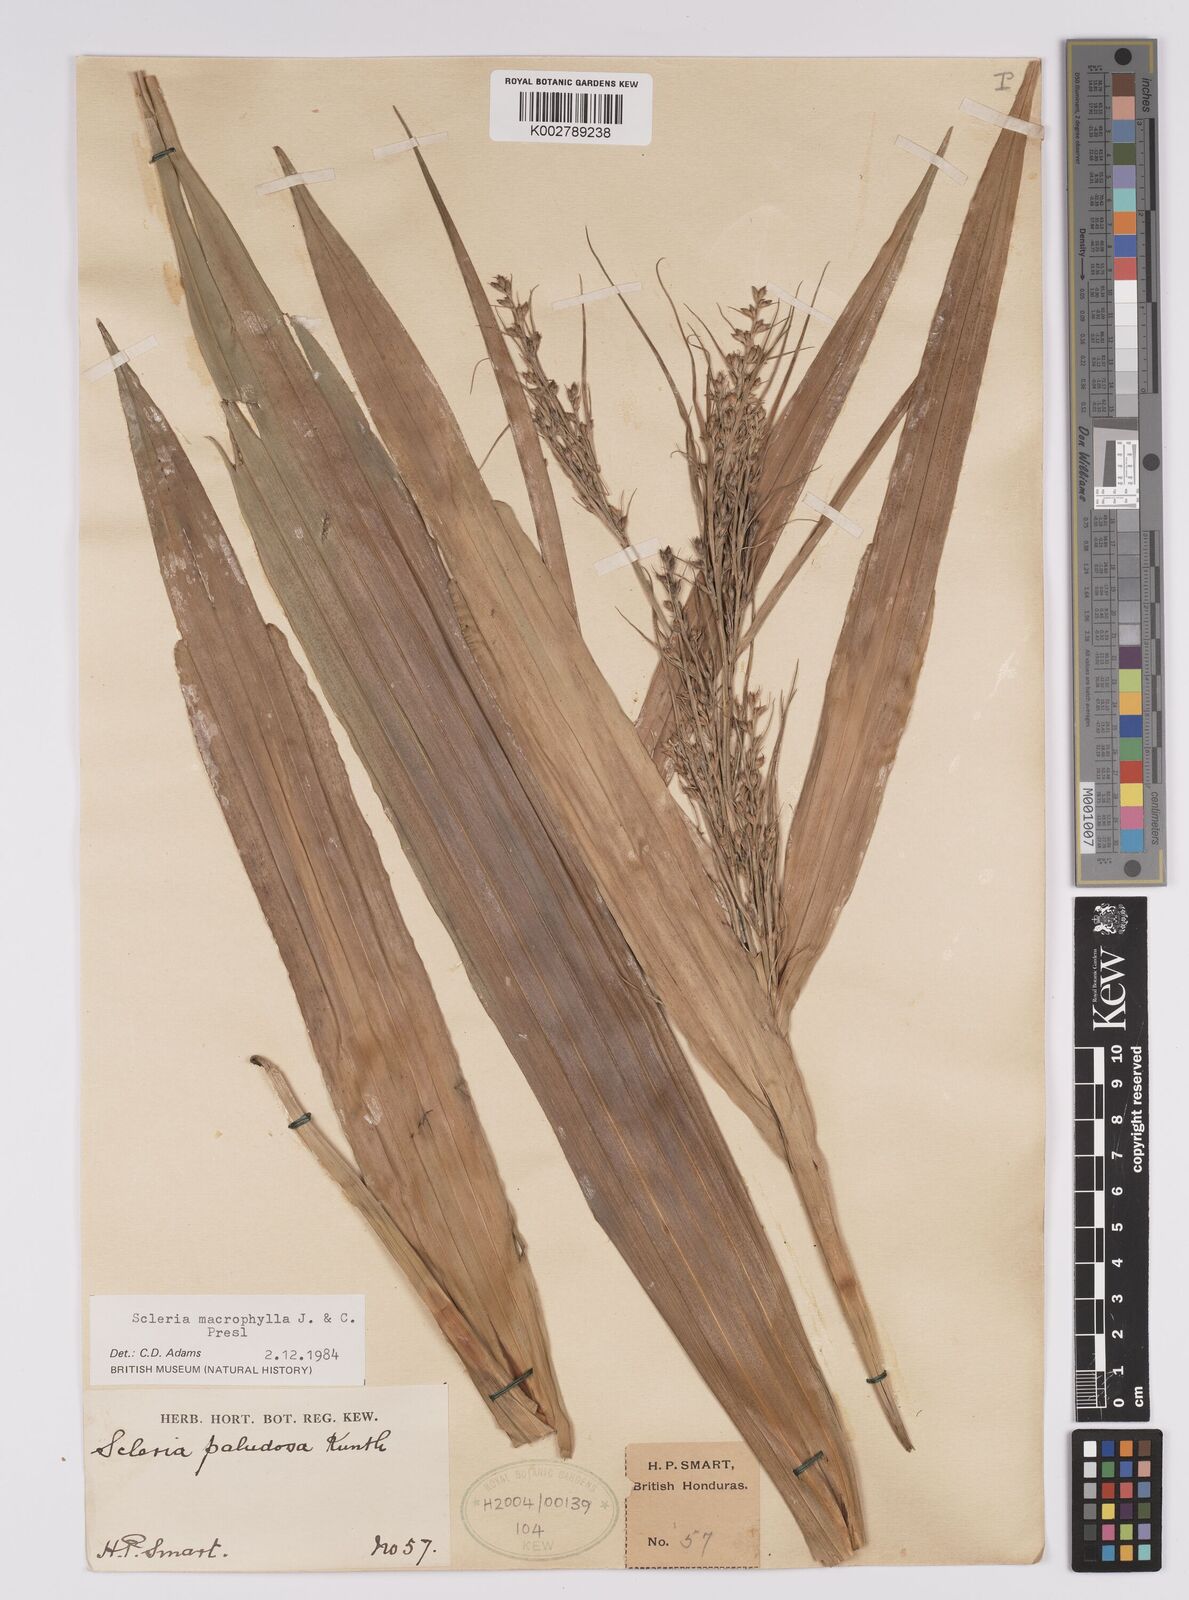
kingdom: Plantae
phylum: Tracheophyta
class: Liliopsida
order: Poales
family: Cyperaceae
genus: Scleria
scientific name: Scleria macrophylla
